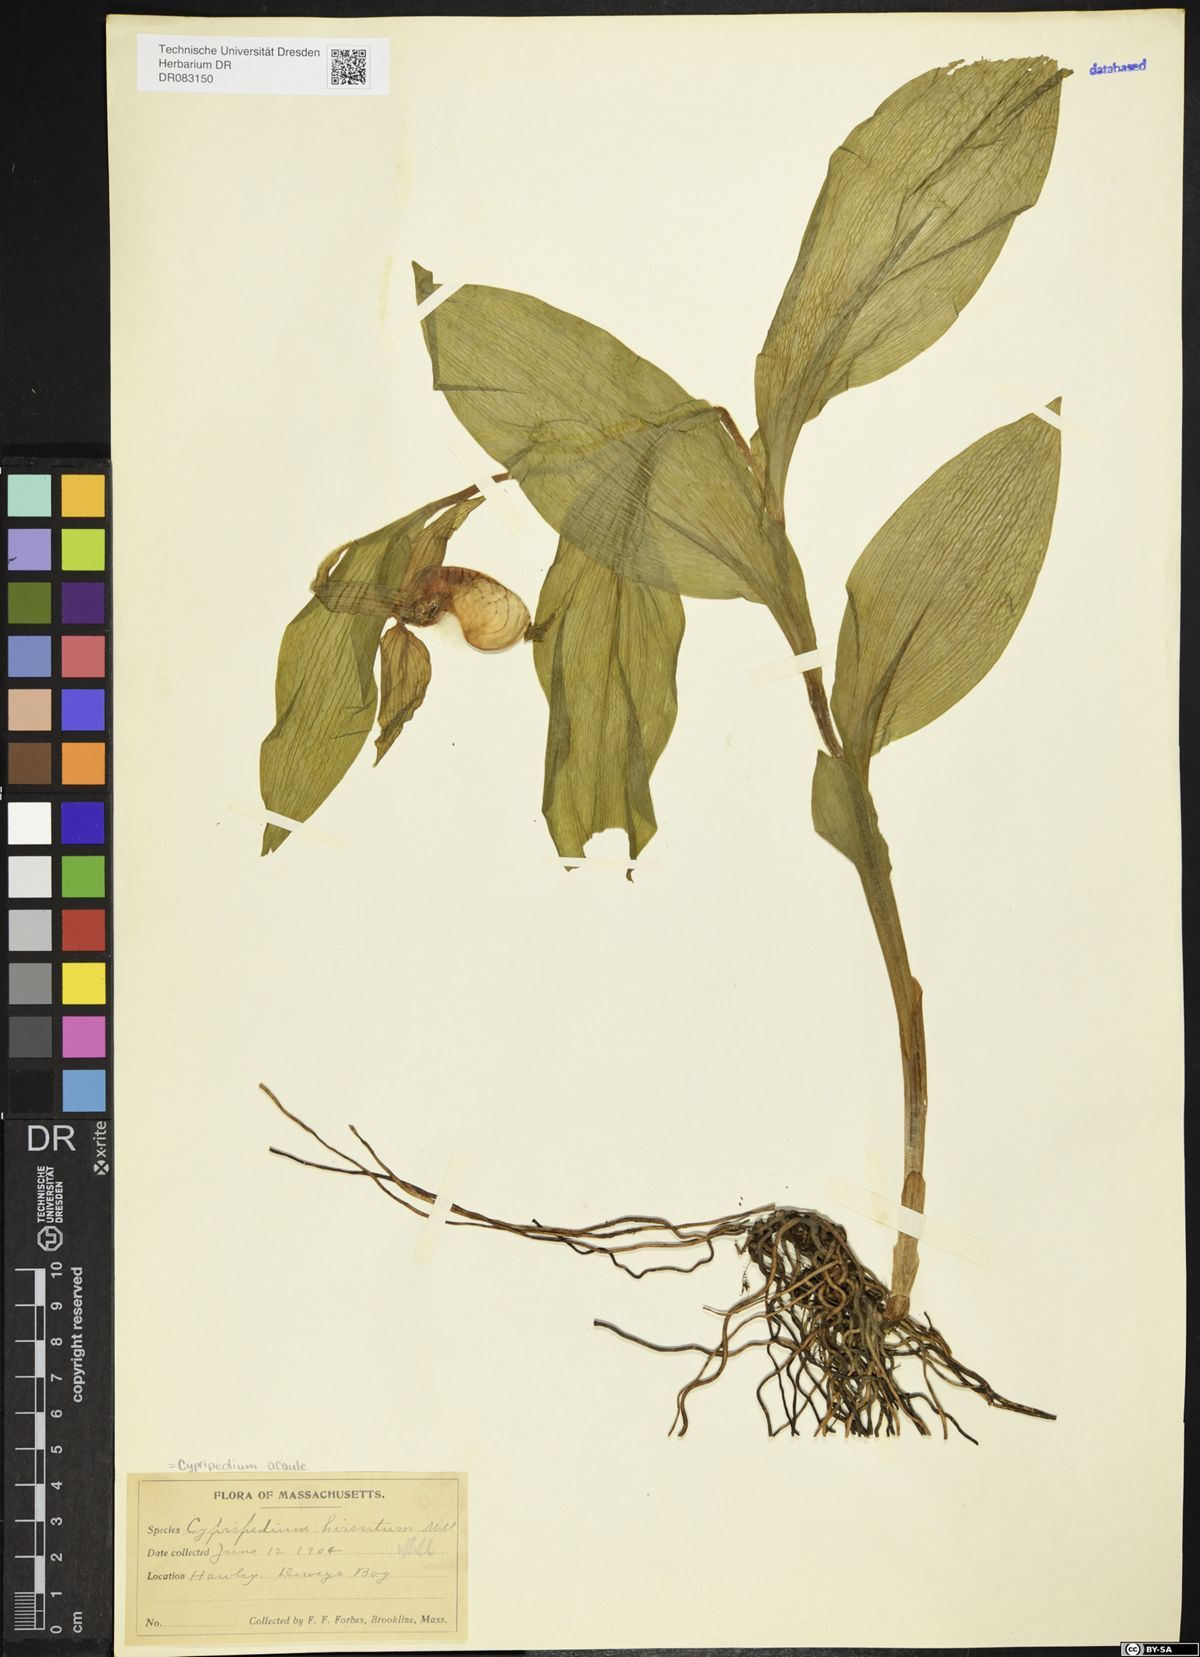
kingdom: Plantae
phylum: Tracheophyta
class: Liliopsida
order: Asparagales
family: Orchidaceae
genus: Cypripedium
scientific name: Cypripedium acaule
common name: Pink lady's-slipper
